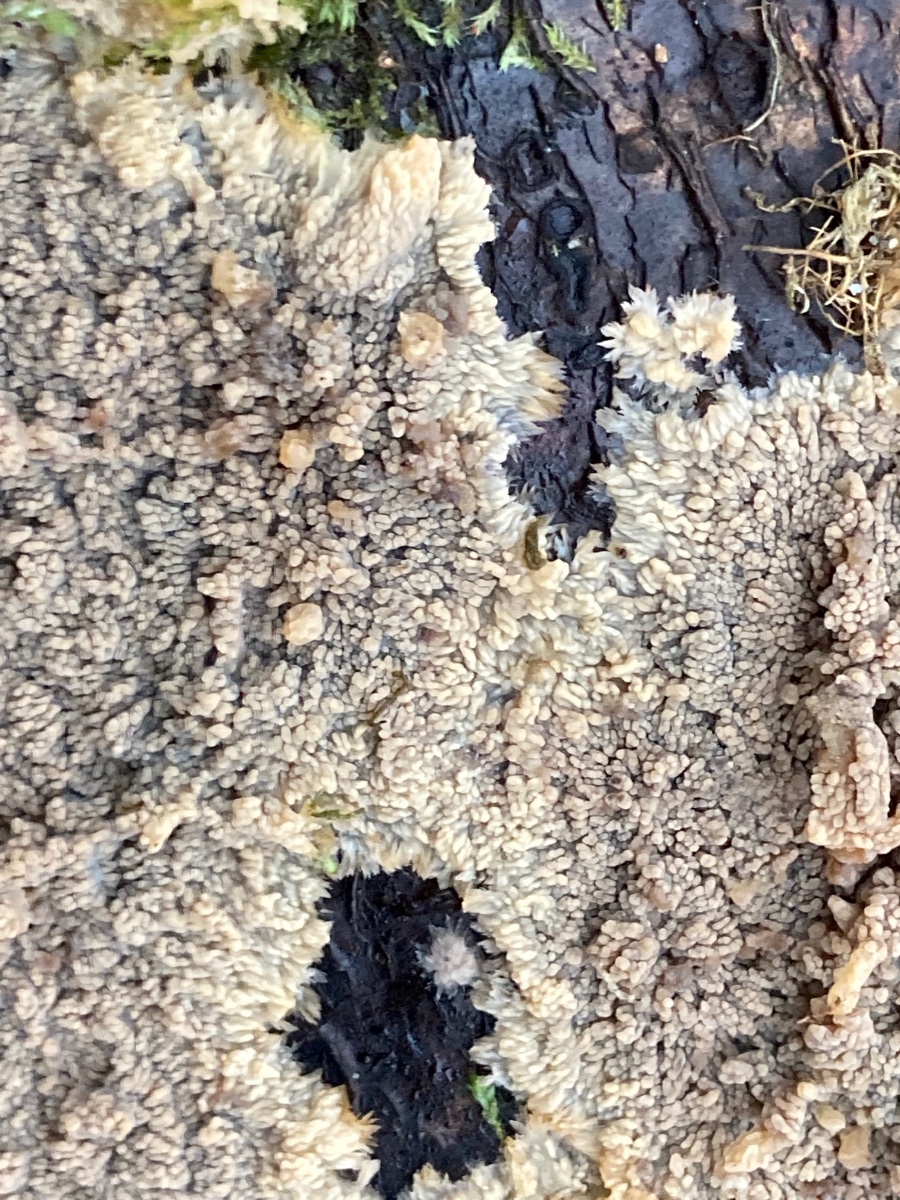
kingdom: Fungi
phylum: Basidiomycota
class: Agaricomycetes
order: Polyporales
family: Meruliaceae
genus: Phlebia
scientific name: Phlebia radiata
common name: stråle-åresvamp
